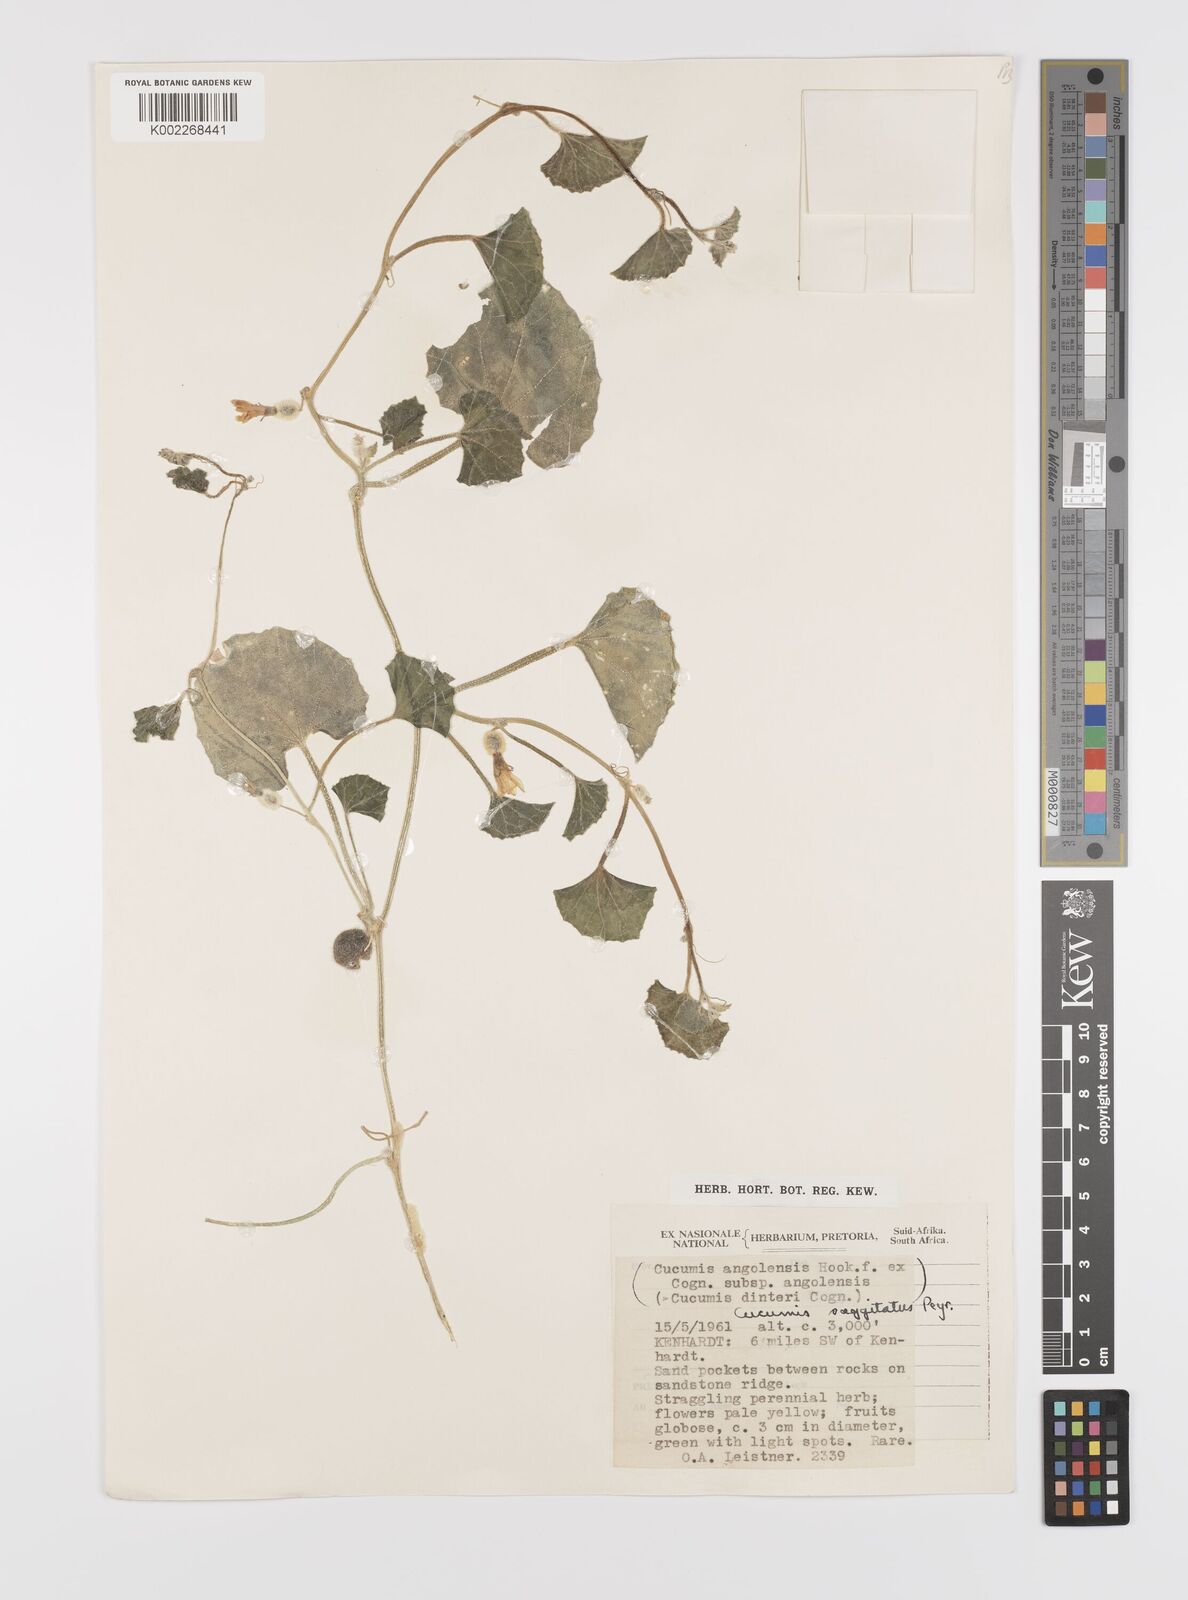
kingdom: Plantae
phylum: Tracheophyta
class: Magnoliopsida
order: Cucurbitales
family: Cucurbitaceae
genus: Cucumis
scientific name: Cucumis sagittatus
